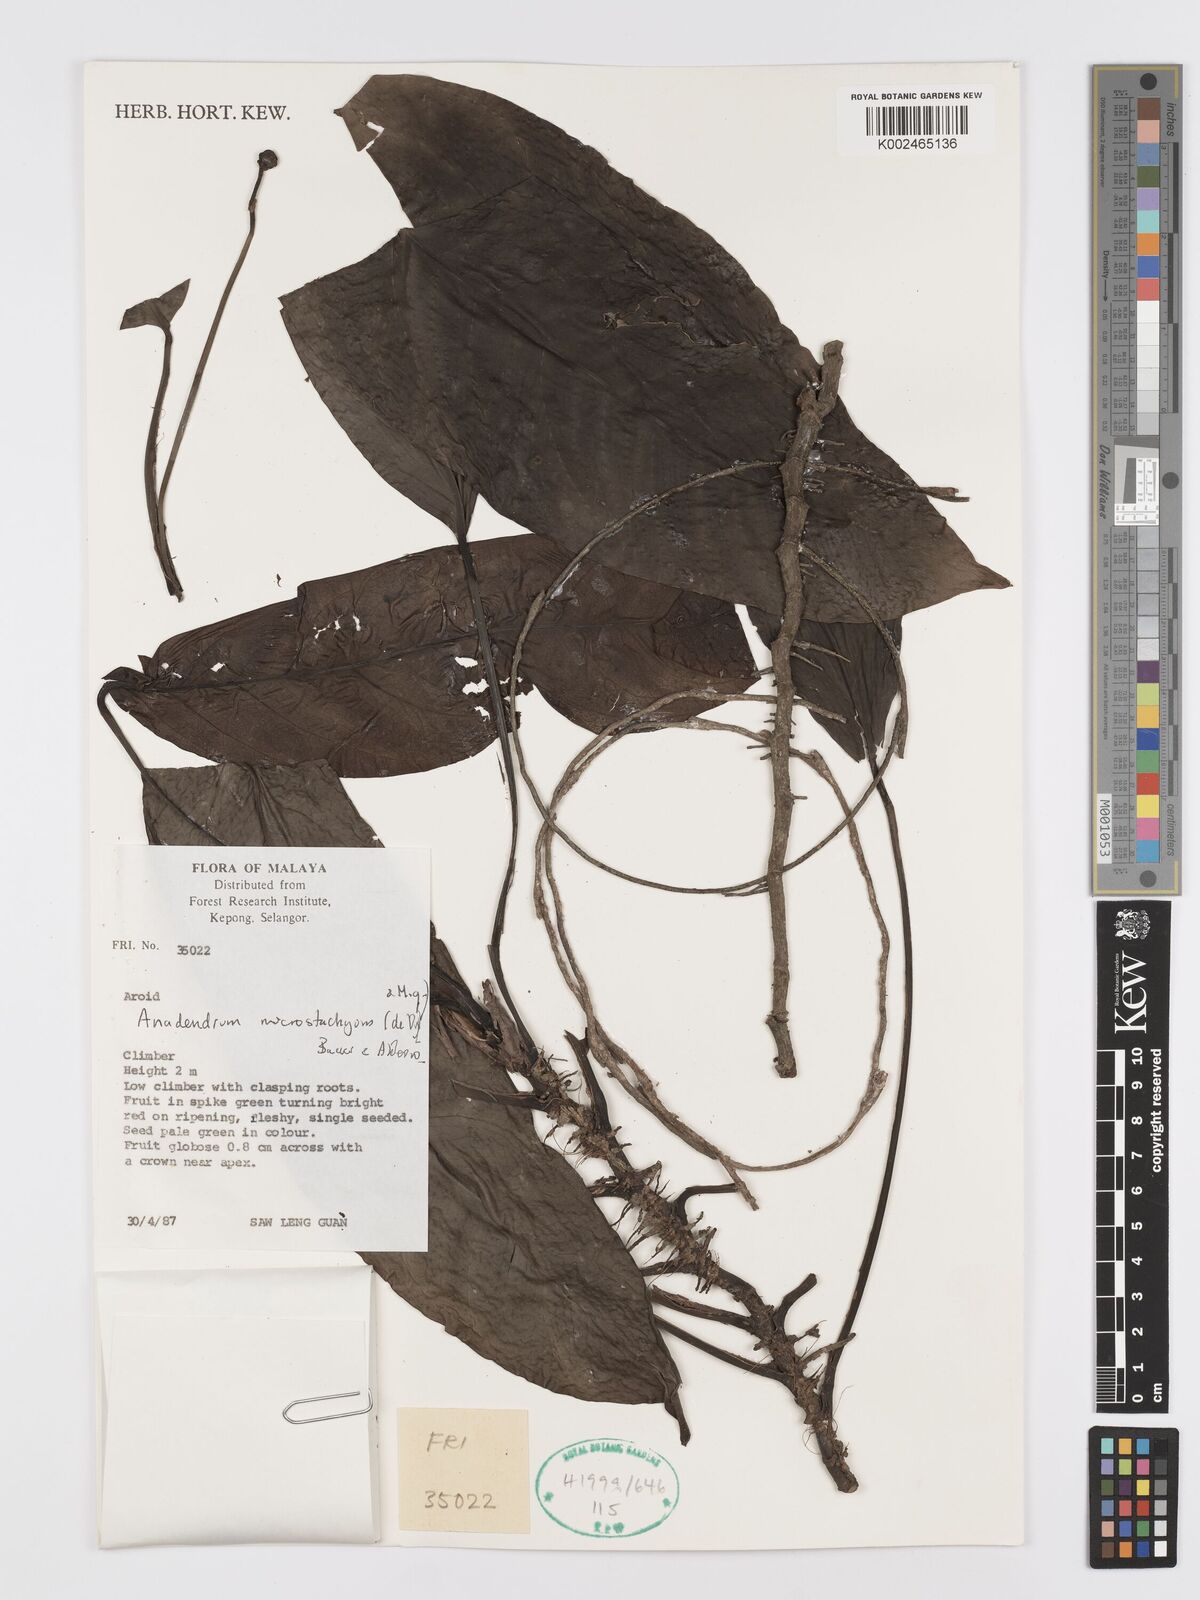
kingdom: Plantae
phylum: Tracheophyta
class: Liliopsida
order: Alismatales
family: Araceae
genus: Anadendrum
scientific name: Anadendrum microstachyum
